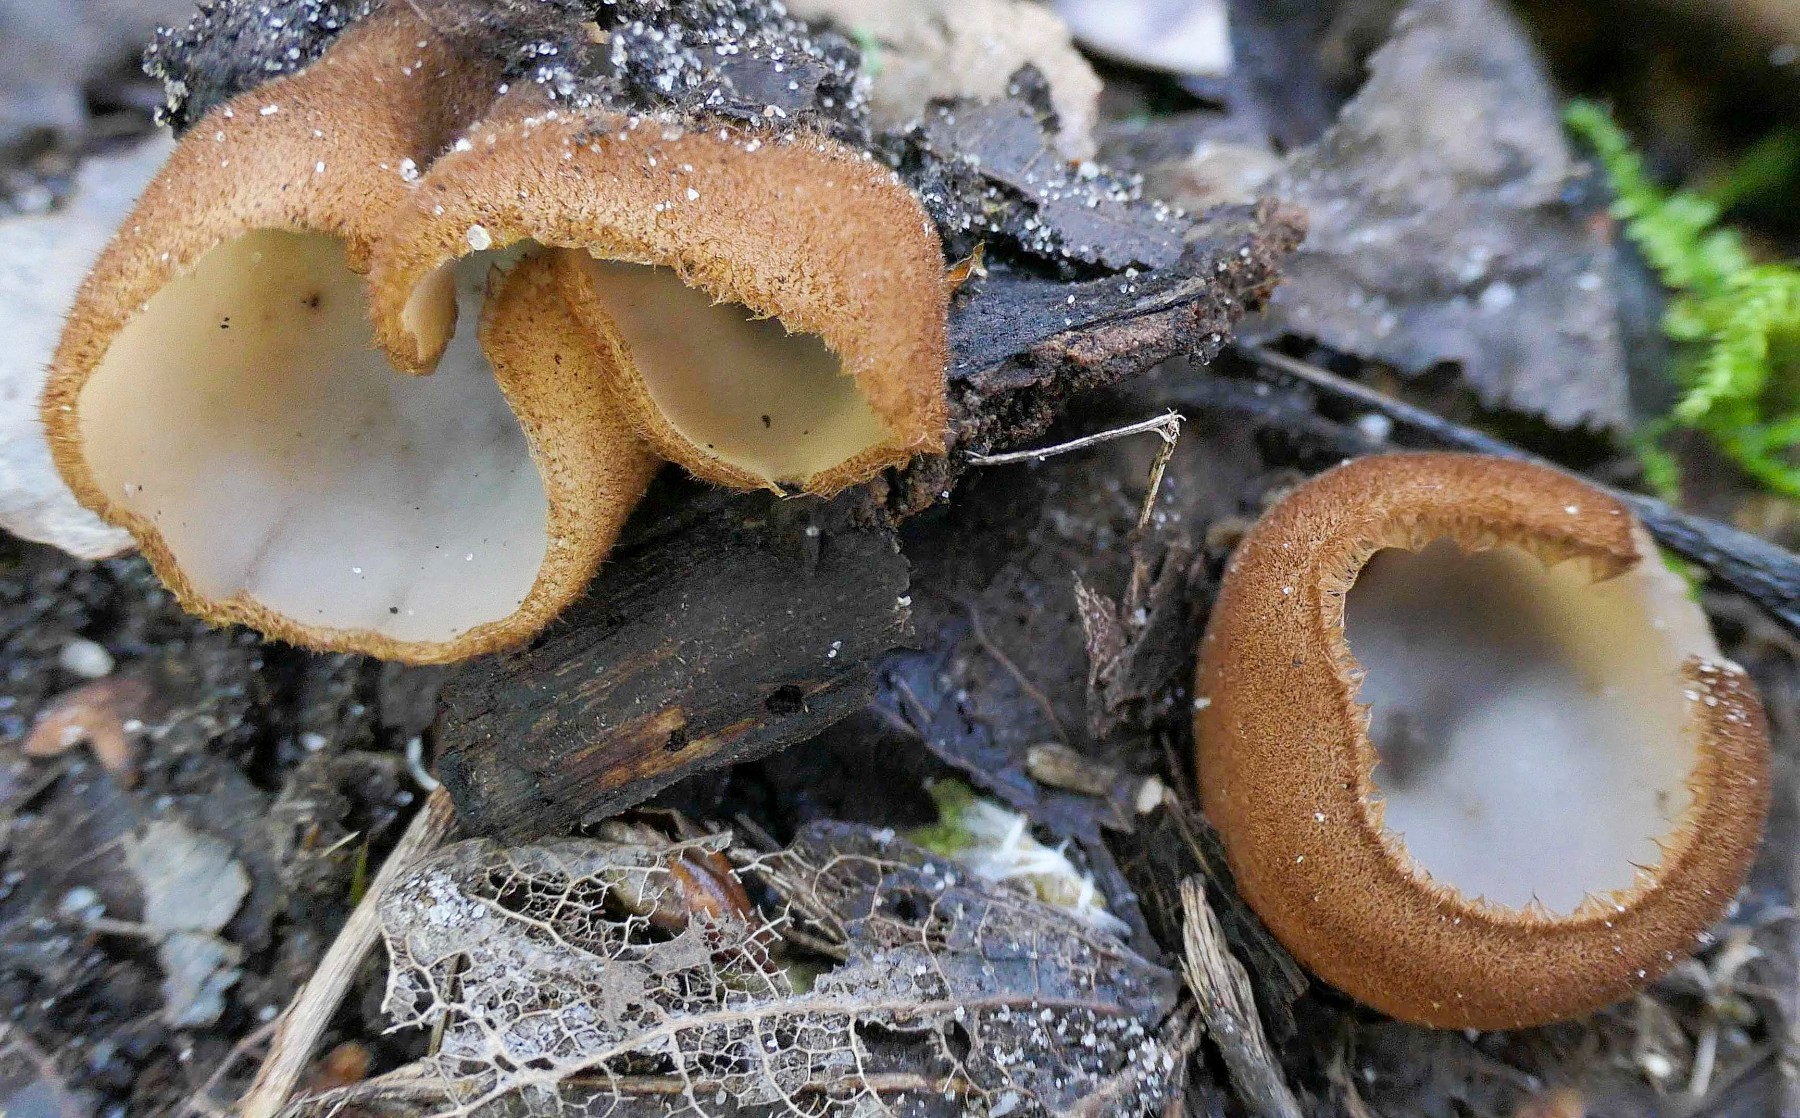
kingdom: Fungi
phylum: Ascomycota
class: Pezizomycetes
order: Pezizales
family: Pyronemataceae
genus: Humaria
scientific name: Humaria hemisphaerica
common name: halvkugleformet børstebæger
